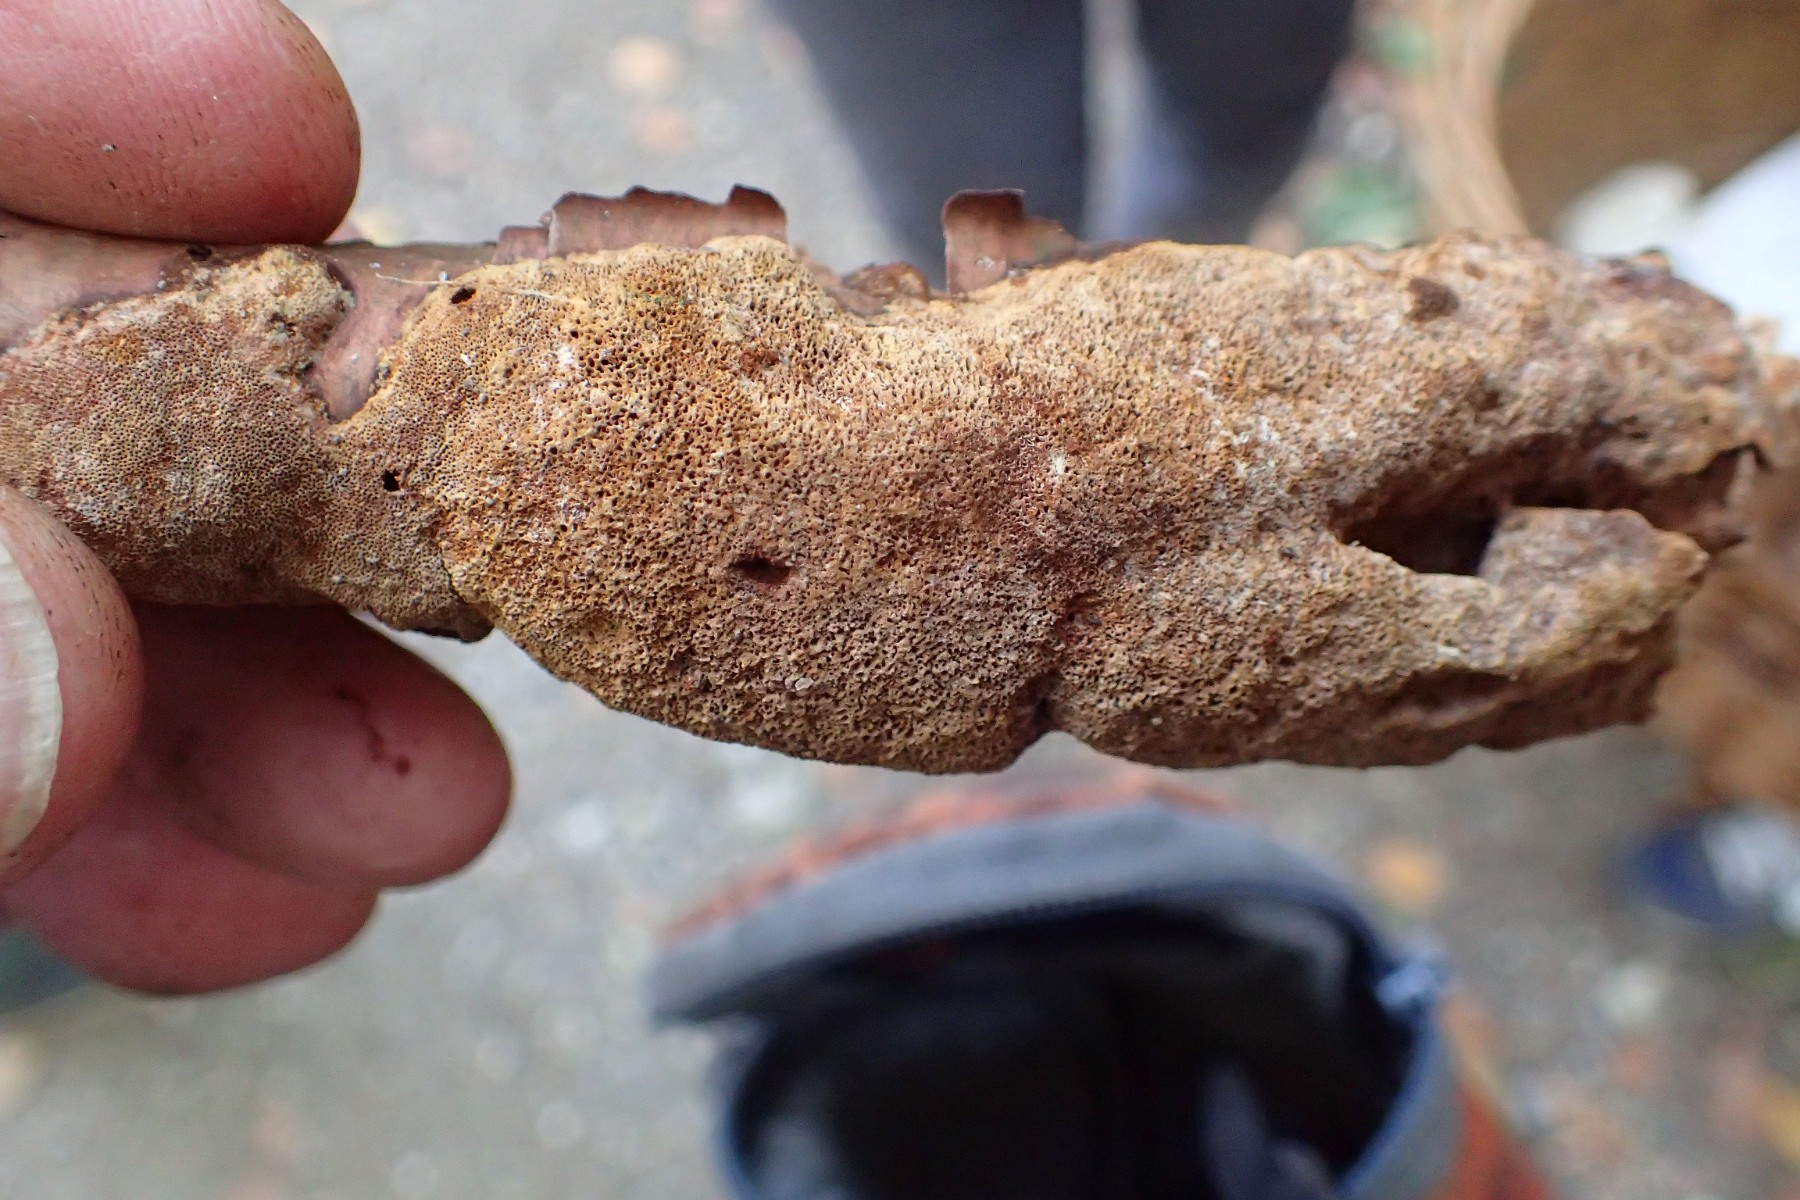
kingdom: Fungi
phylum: Basidiomycota
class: Agaricomycetes
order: Hymenochaetales
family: Hymenochaetaceae
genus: Fuscoporia
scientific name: Fuscoporia
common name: Ildporesvamp
